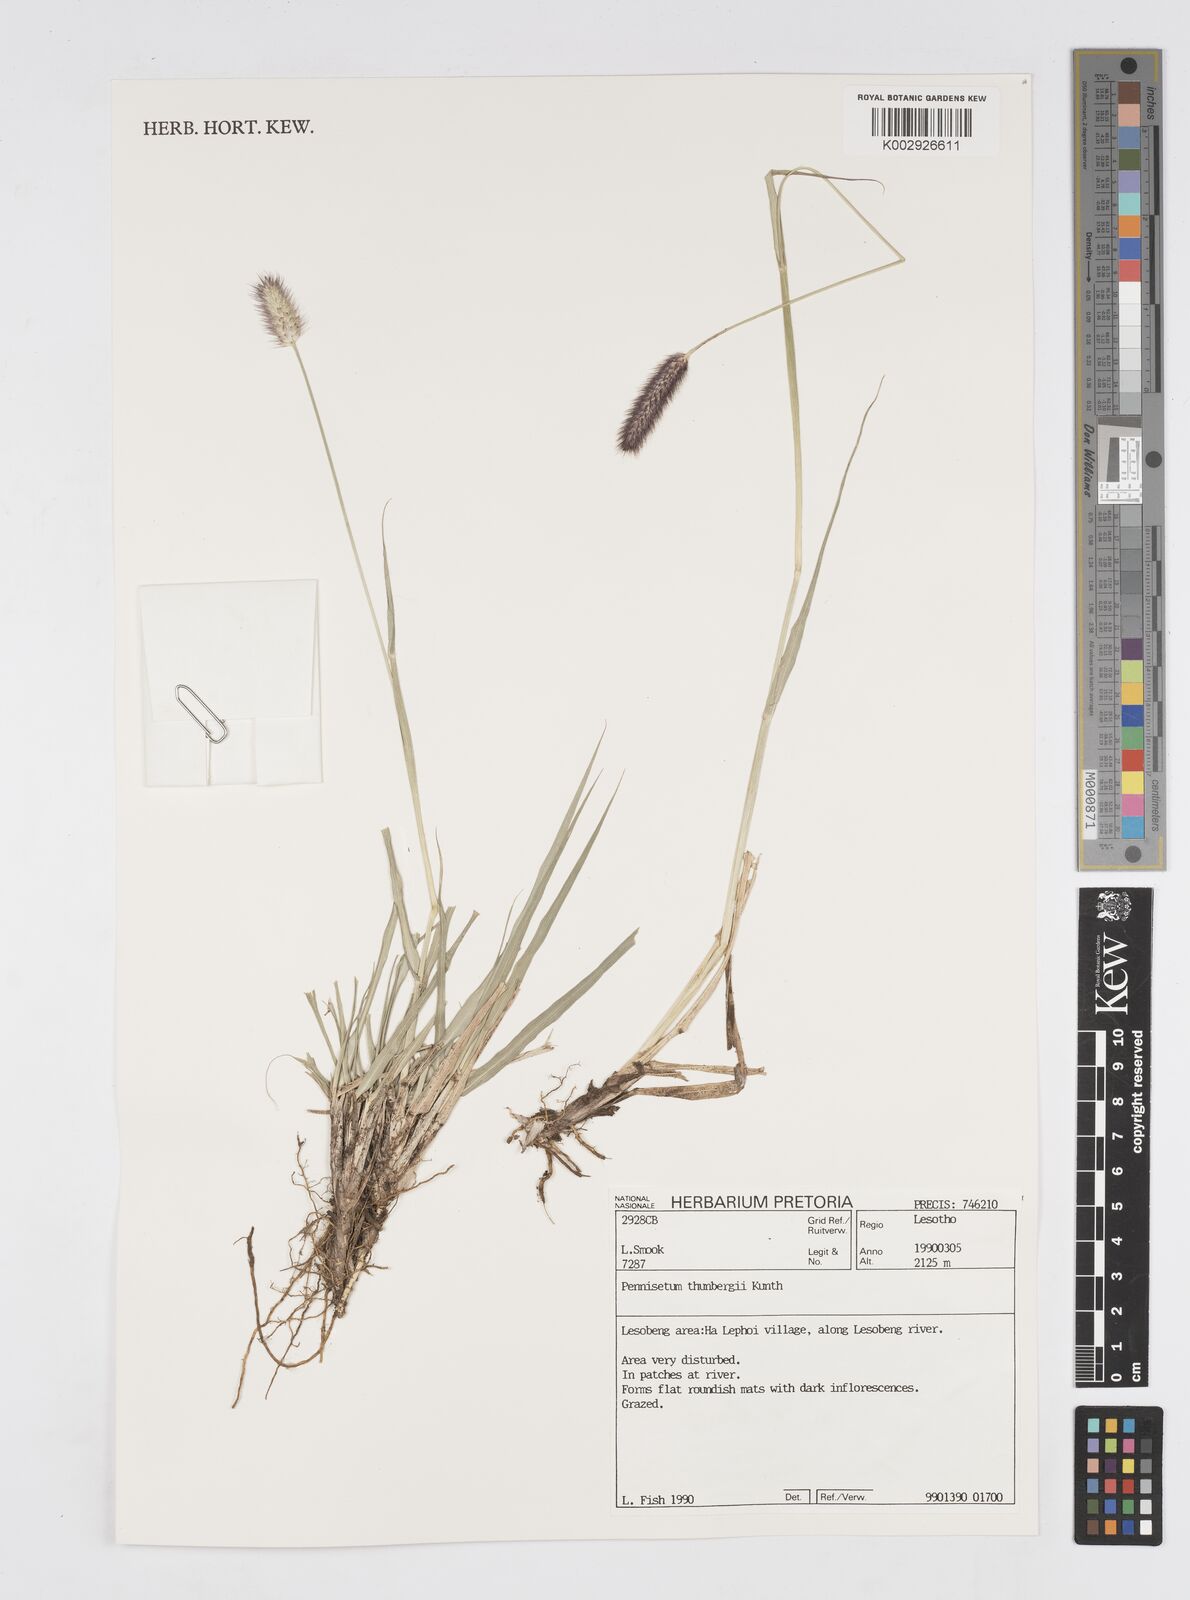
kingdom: Plantae
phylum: Tracheophyta
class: Liliopsida
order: Poales
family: Poaceae
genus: Cenchrus
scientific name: Cenchrus geniculatus
